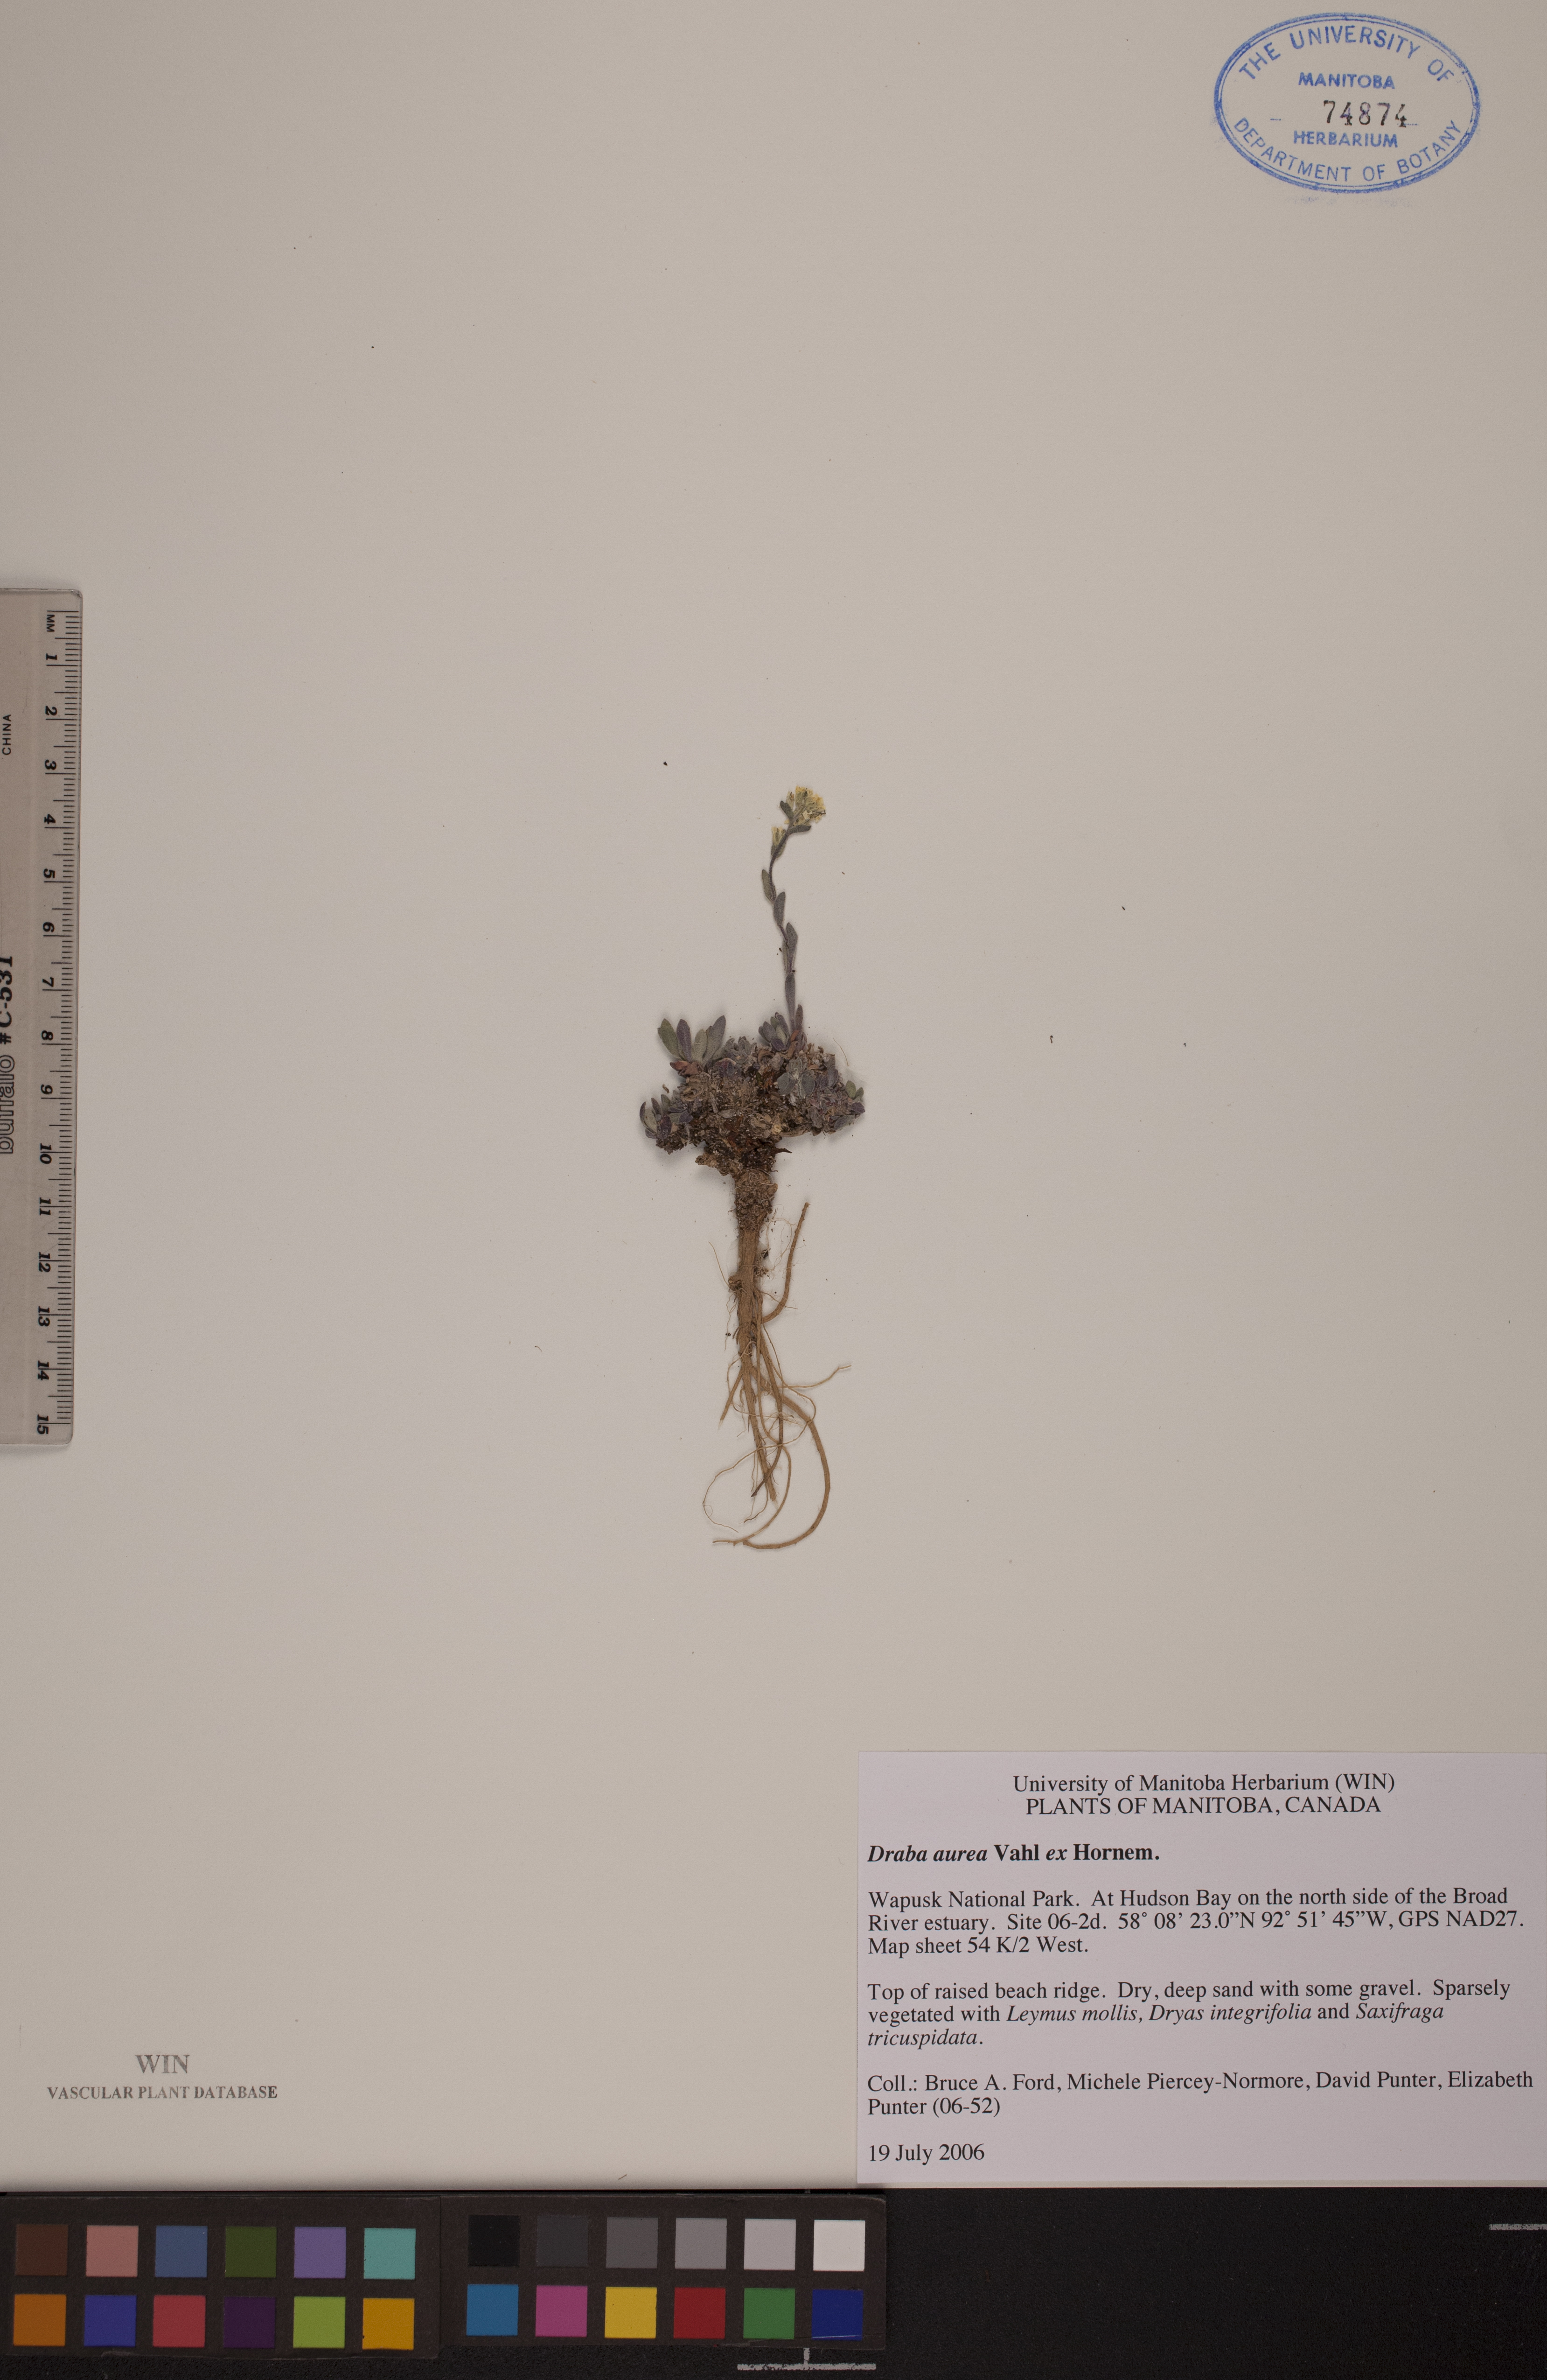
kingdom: Plantae
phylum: Tracheophyta
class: Magnoliopsida
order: Brassicales
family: Brassicaceae
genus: Draba
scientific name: Draba aurea
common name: Golden draba
